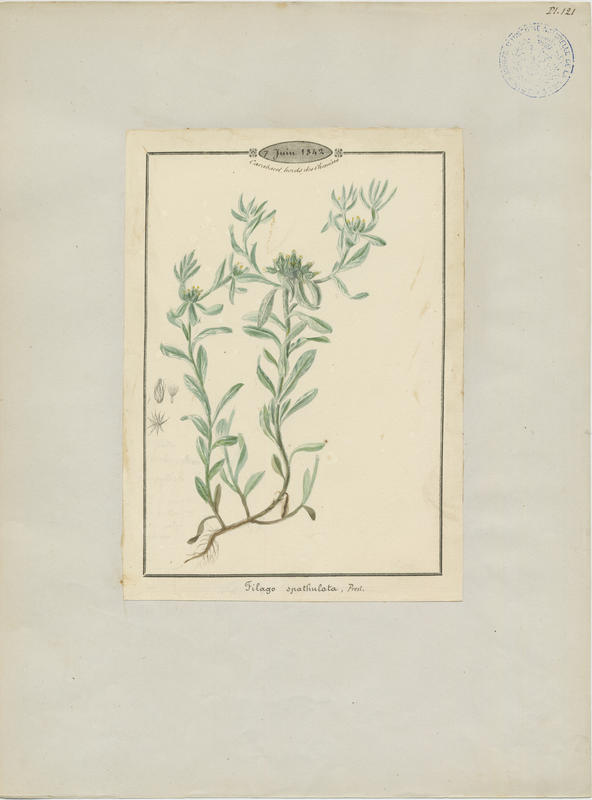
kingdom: Plantae
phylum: Tracheophyta
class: Magnoliopsida
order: Asterales
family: Asteraceae
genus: Filago
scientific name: Filago pyramidata
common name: Broad-leaved cudweed
